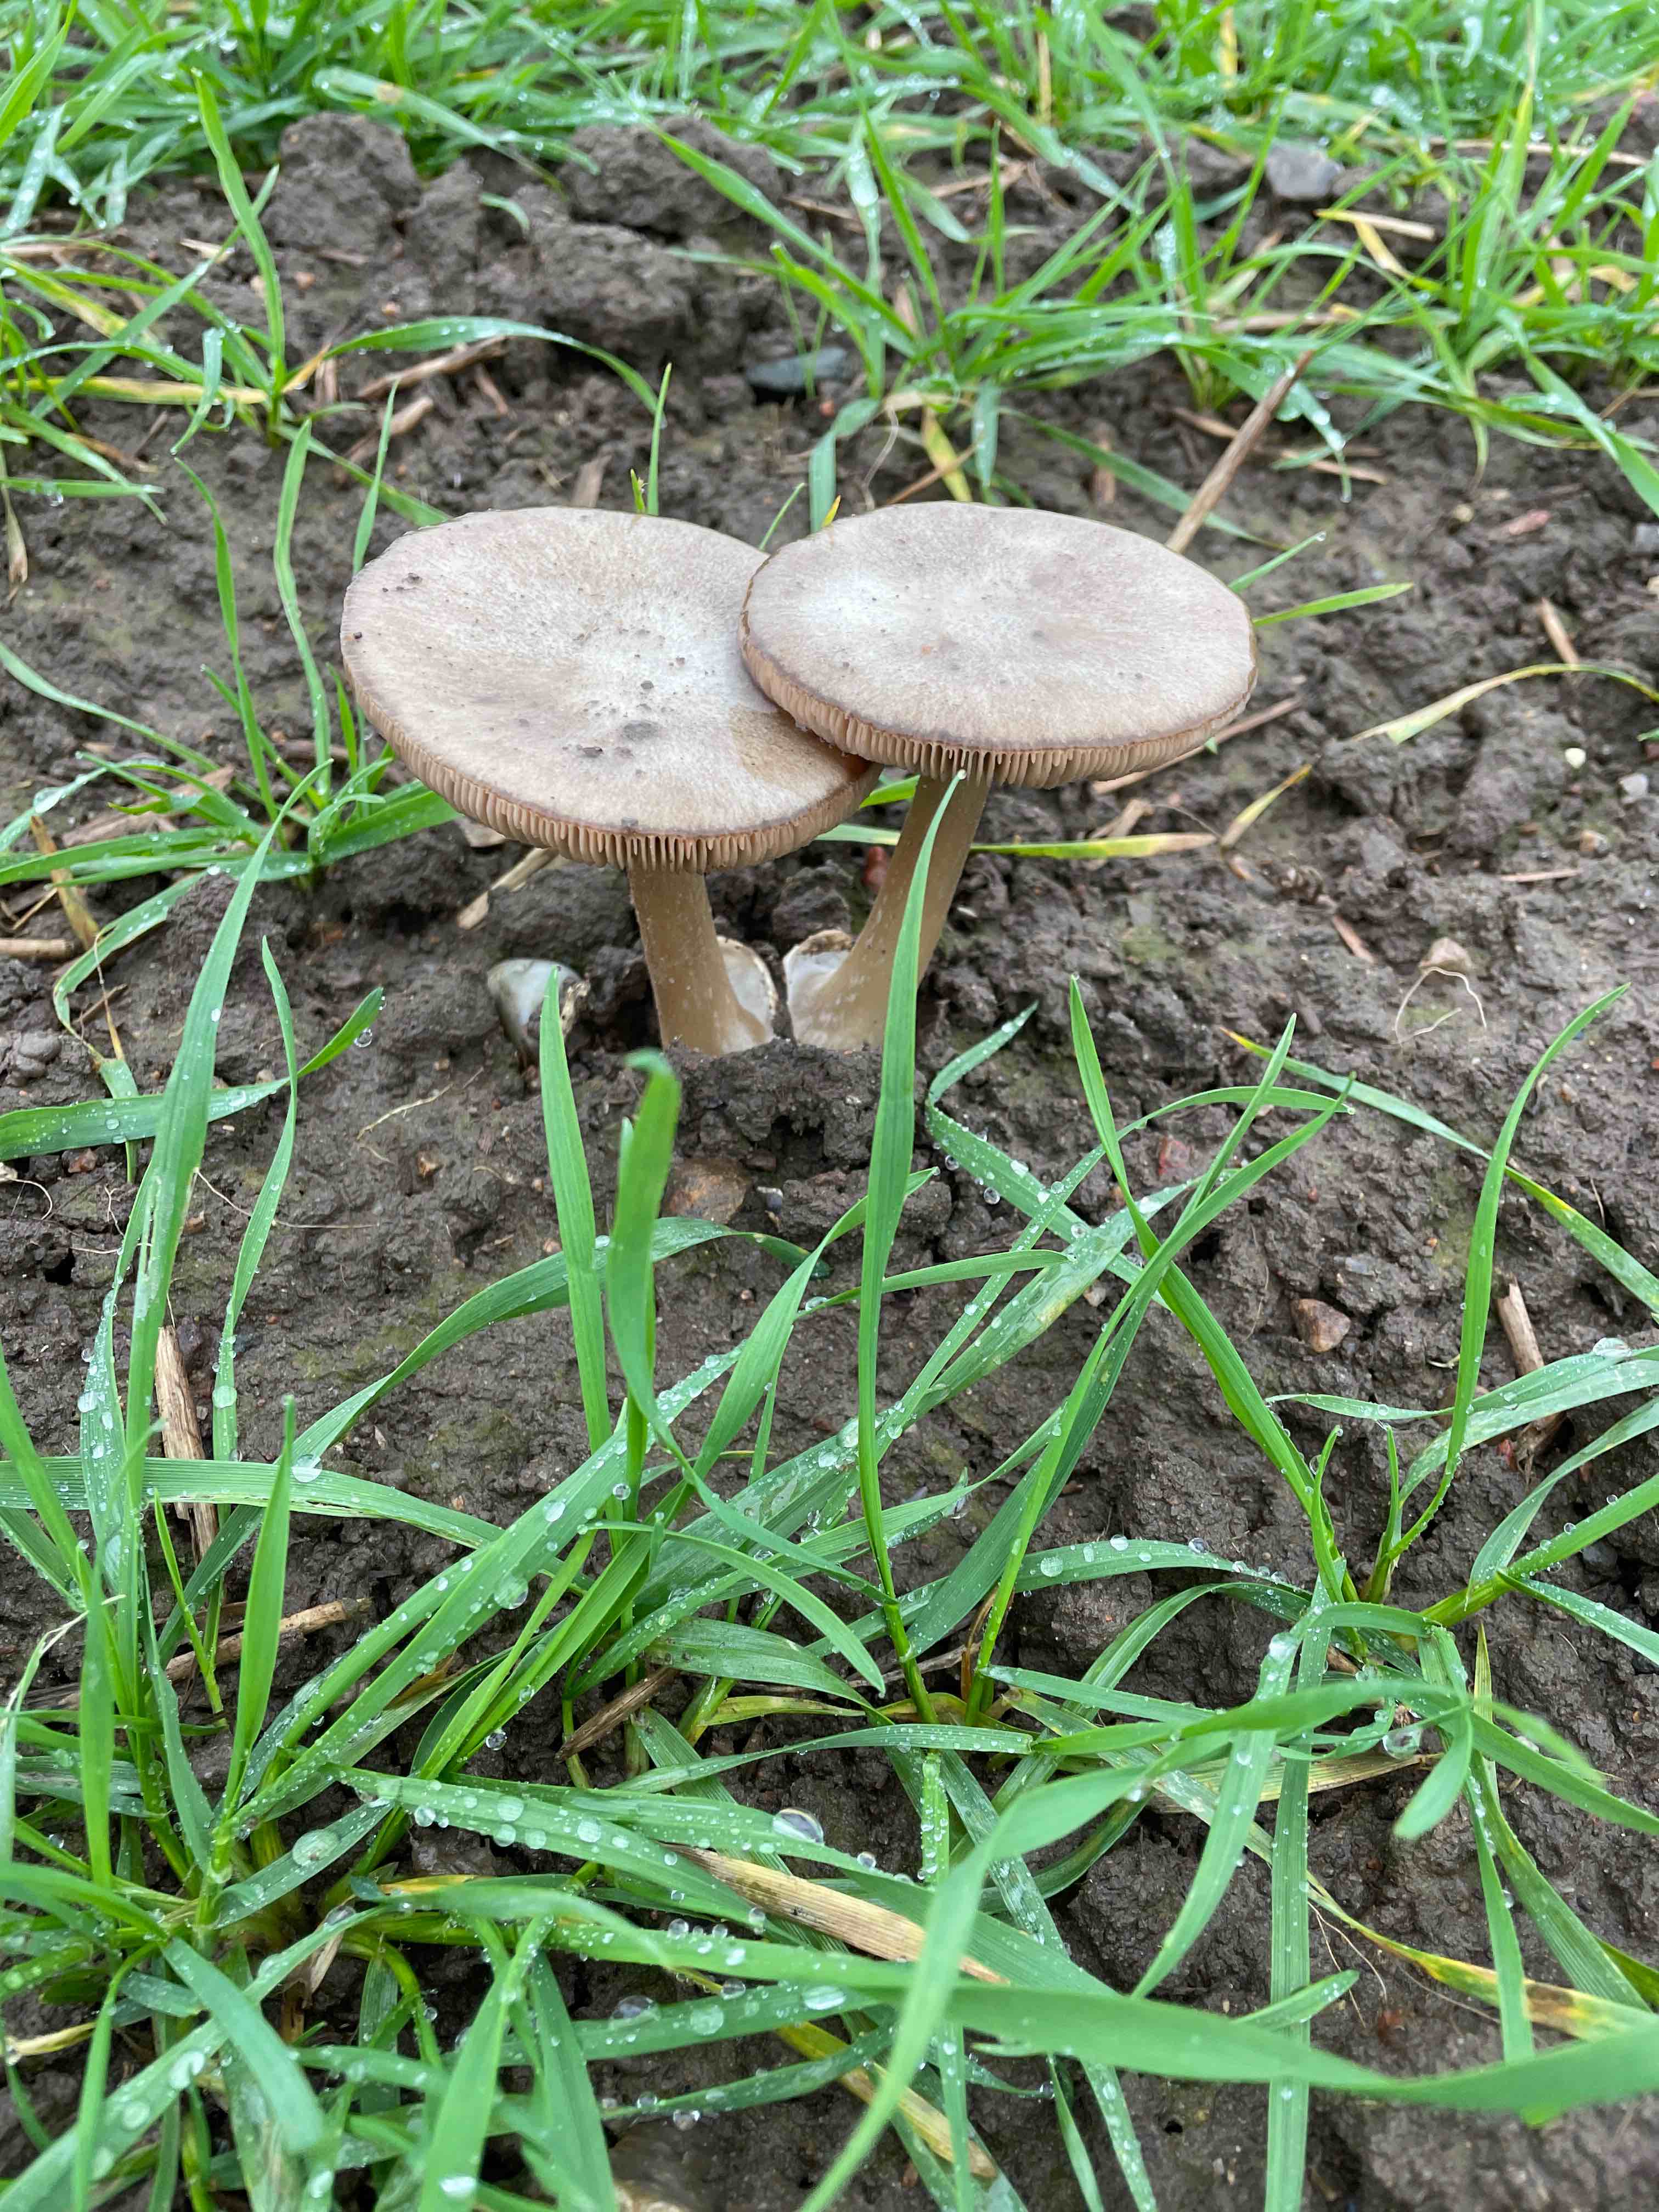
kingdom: Fungi
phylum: Basidiomycota
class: Agaricomycetes
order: Agaricales
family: Pluteaceae
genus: Volvopluteus
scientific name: Volvopluteus gloiocephalus
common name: høj posesvamp
